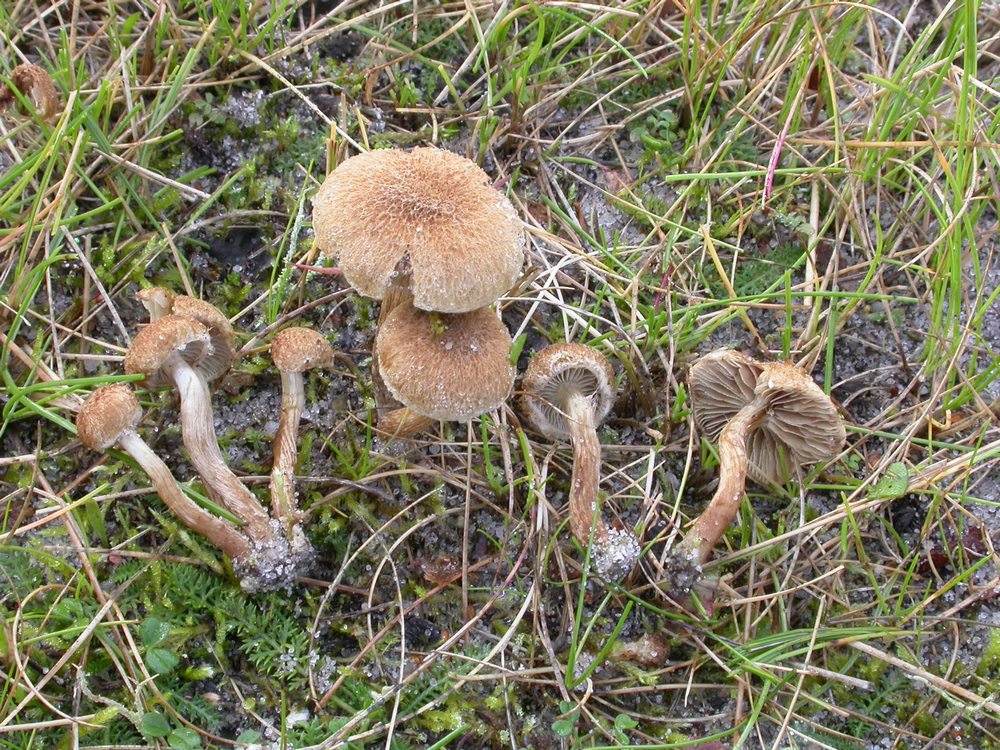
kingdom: Fungi
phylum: Basidiomycota
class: Agaricomycetes
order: Agaricales
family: Inocybaceae
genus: Inocybe
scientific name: Inocybe dulcamara
